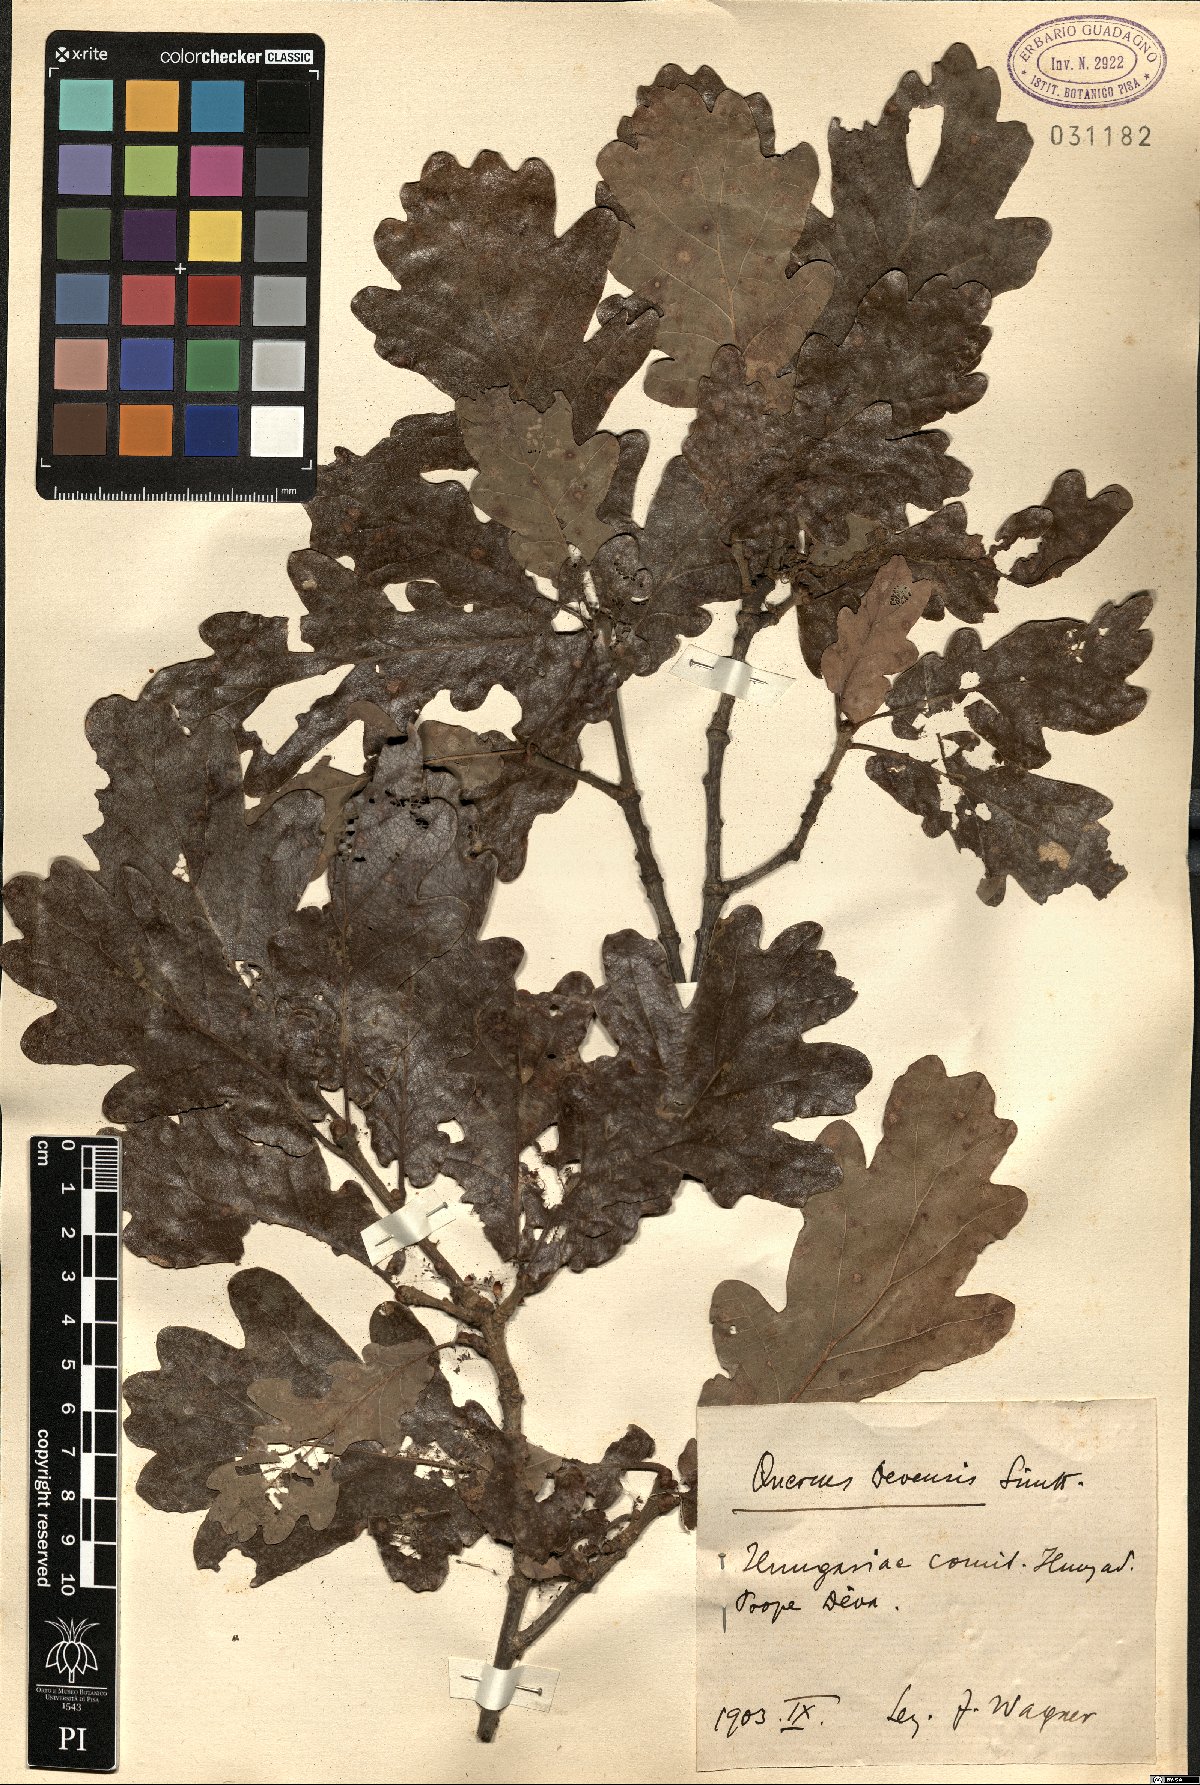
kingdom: Plantae
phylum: Tracheophyta
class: Magnoliopsida
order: Fagales
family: Fagaceae
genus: Quercus
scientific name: Quercus kerneri
